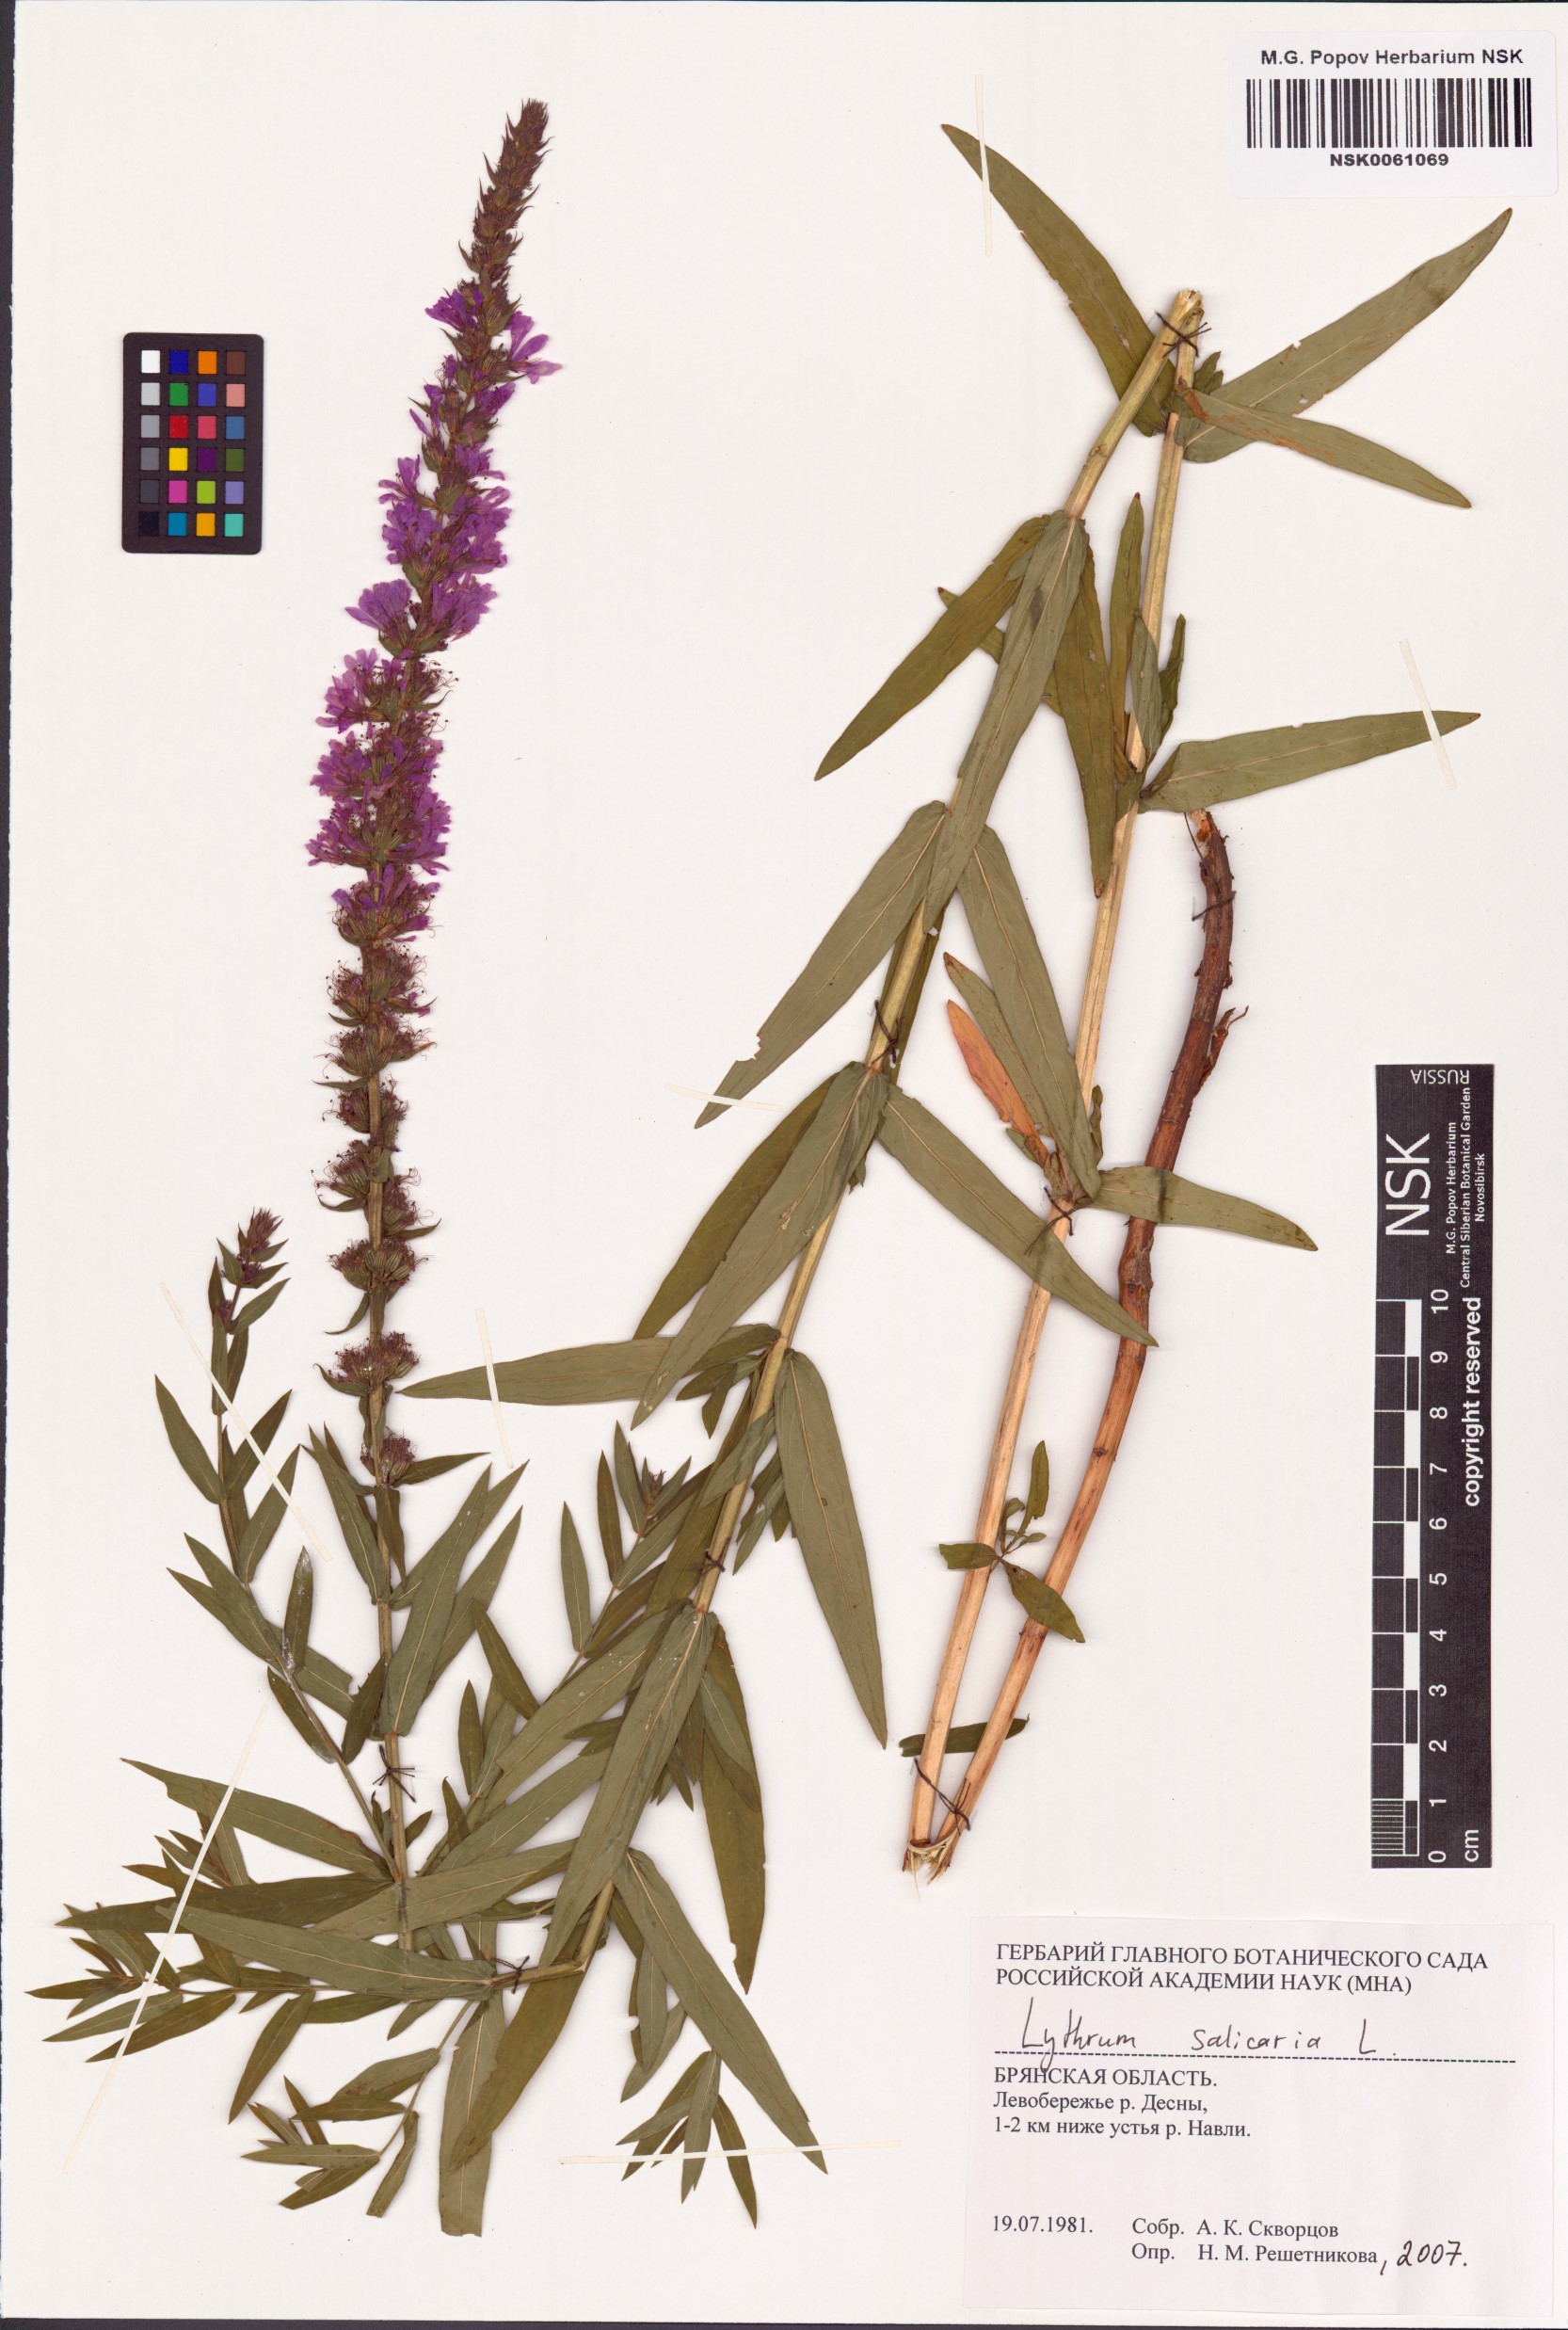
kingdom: Plantae
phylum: Tracheophyta
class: Magnoliopsida
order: Myrtales
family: Lythraceae
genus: Lythrum
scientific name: Lythrum salicaria
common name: Purple loosestrife
